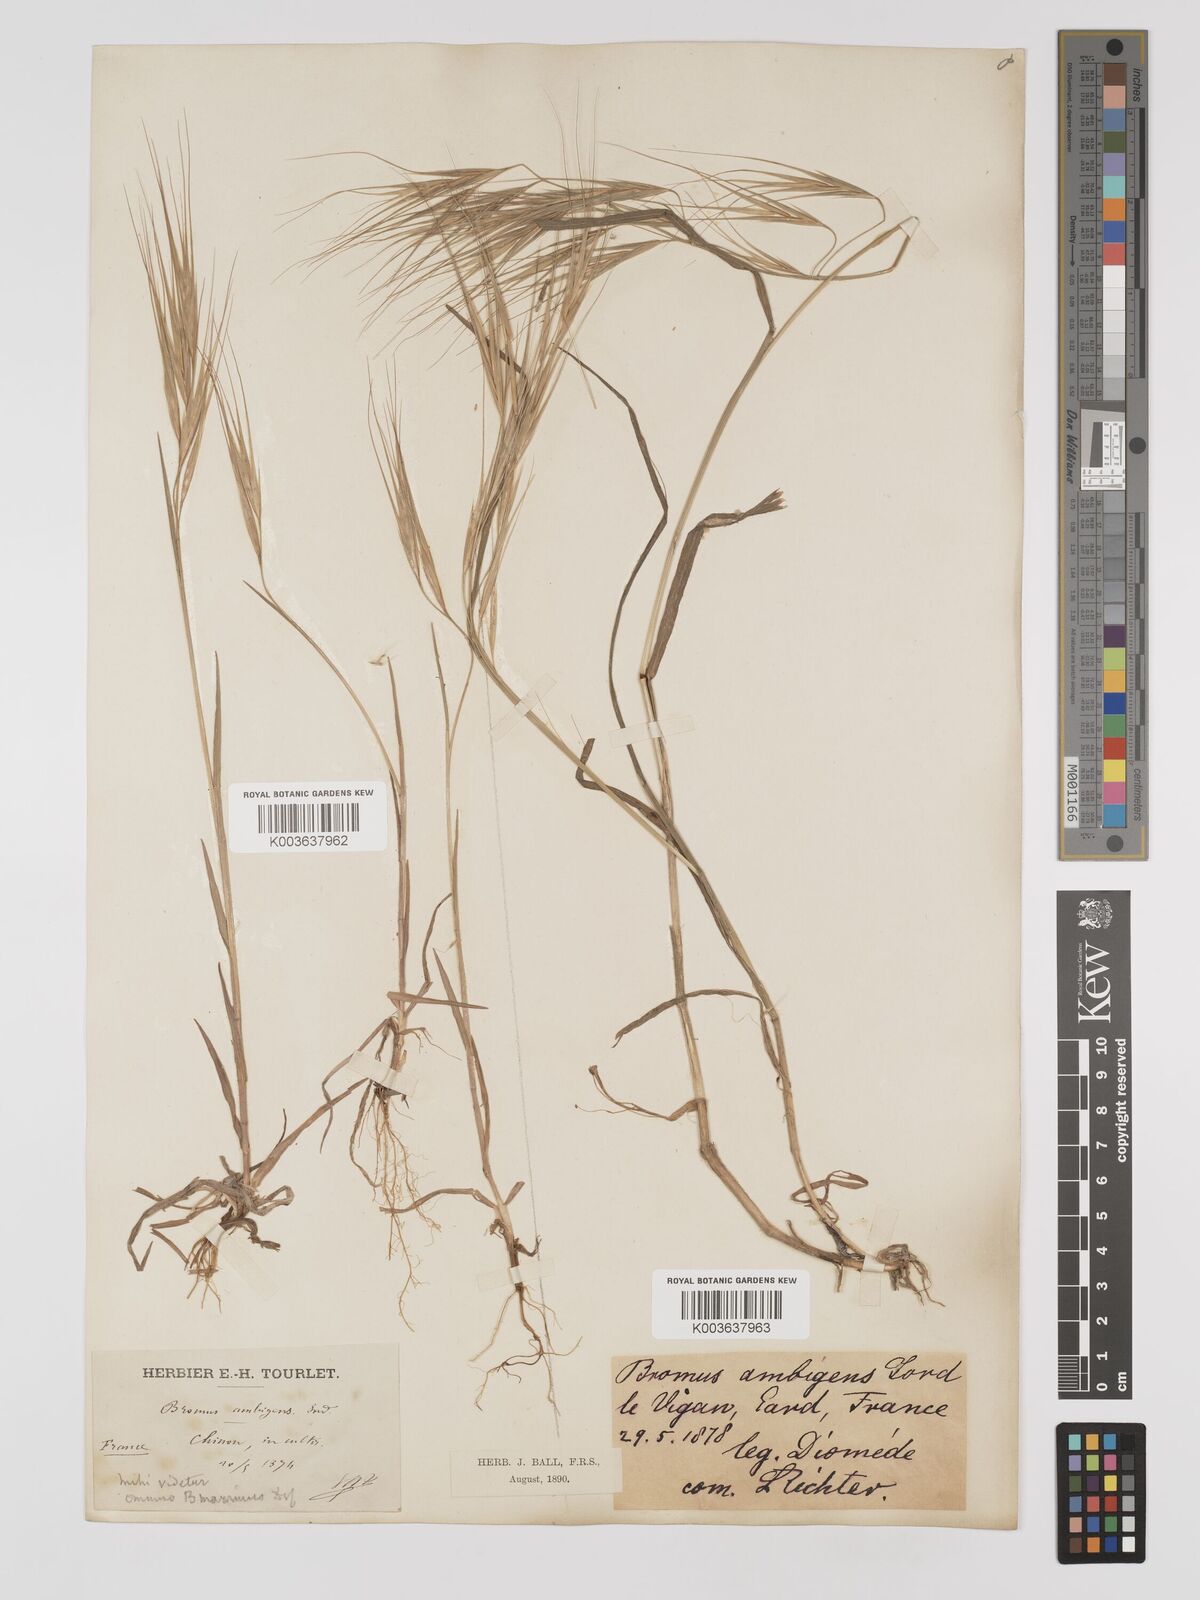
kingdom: Plantae
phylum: Tracheophyta
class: Liliopsida
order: Poales
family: Poaceae
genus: Bromus
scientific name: Bromus
